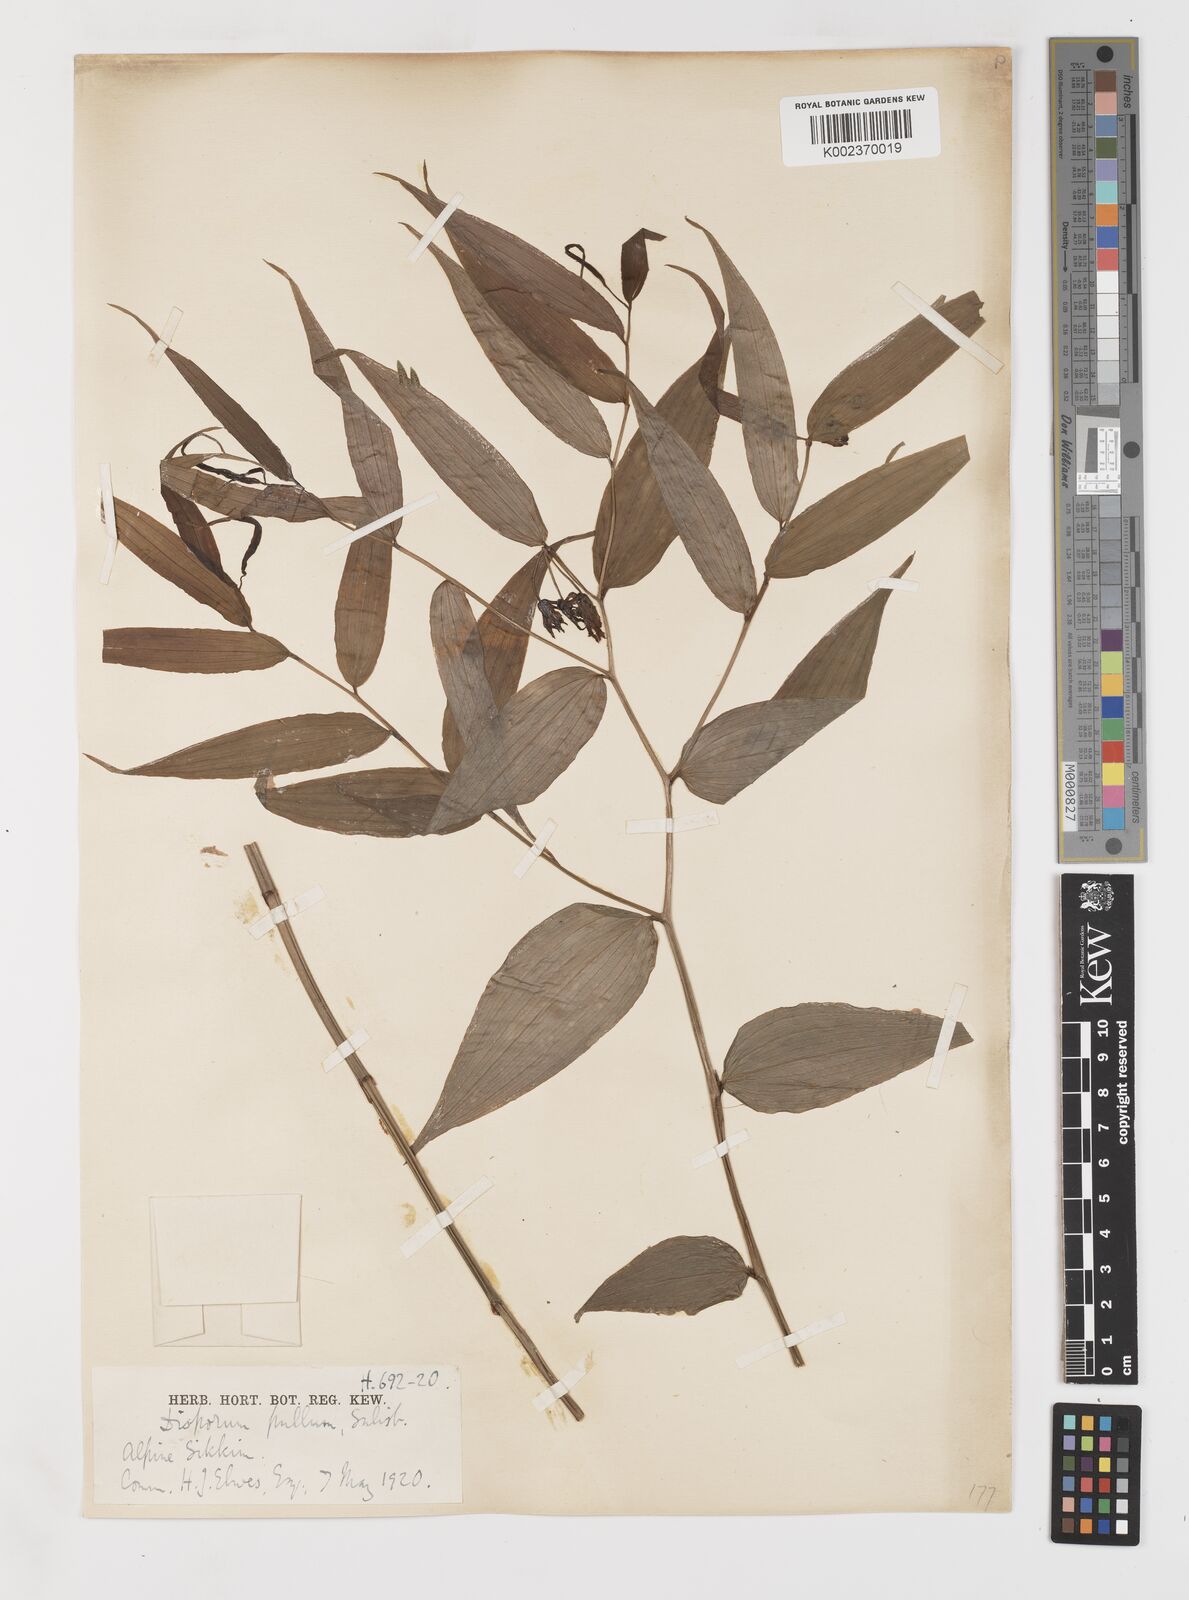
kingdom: Plantae
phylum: Tracheophyta
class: Liliopsida
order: Liliales
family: Colchicaceae
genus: Disporum
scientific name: Disporum cantoniense
